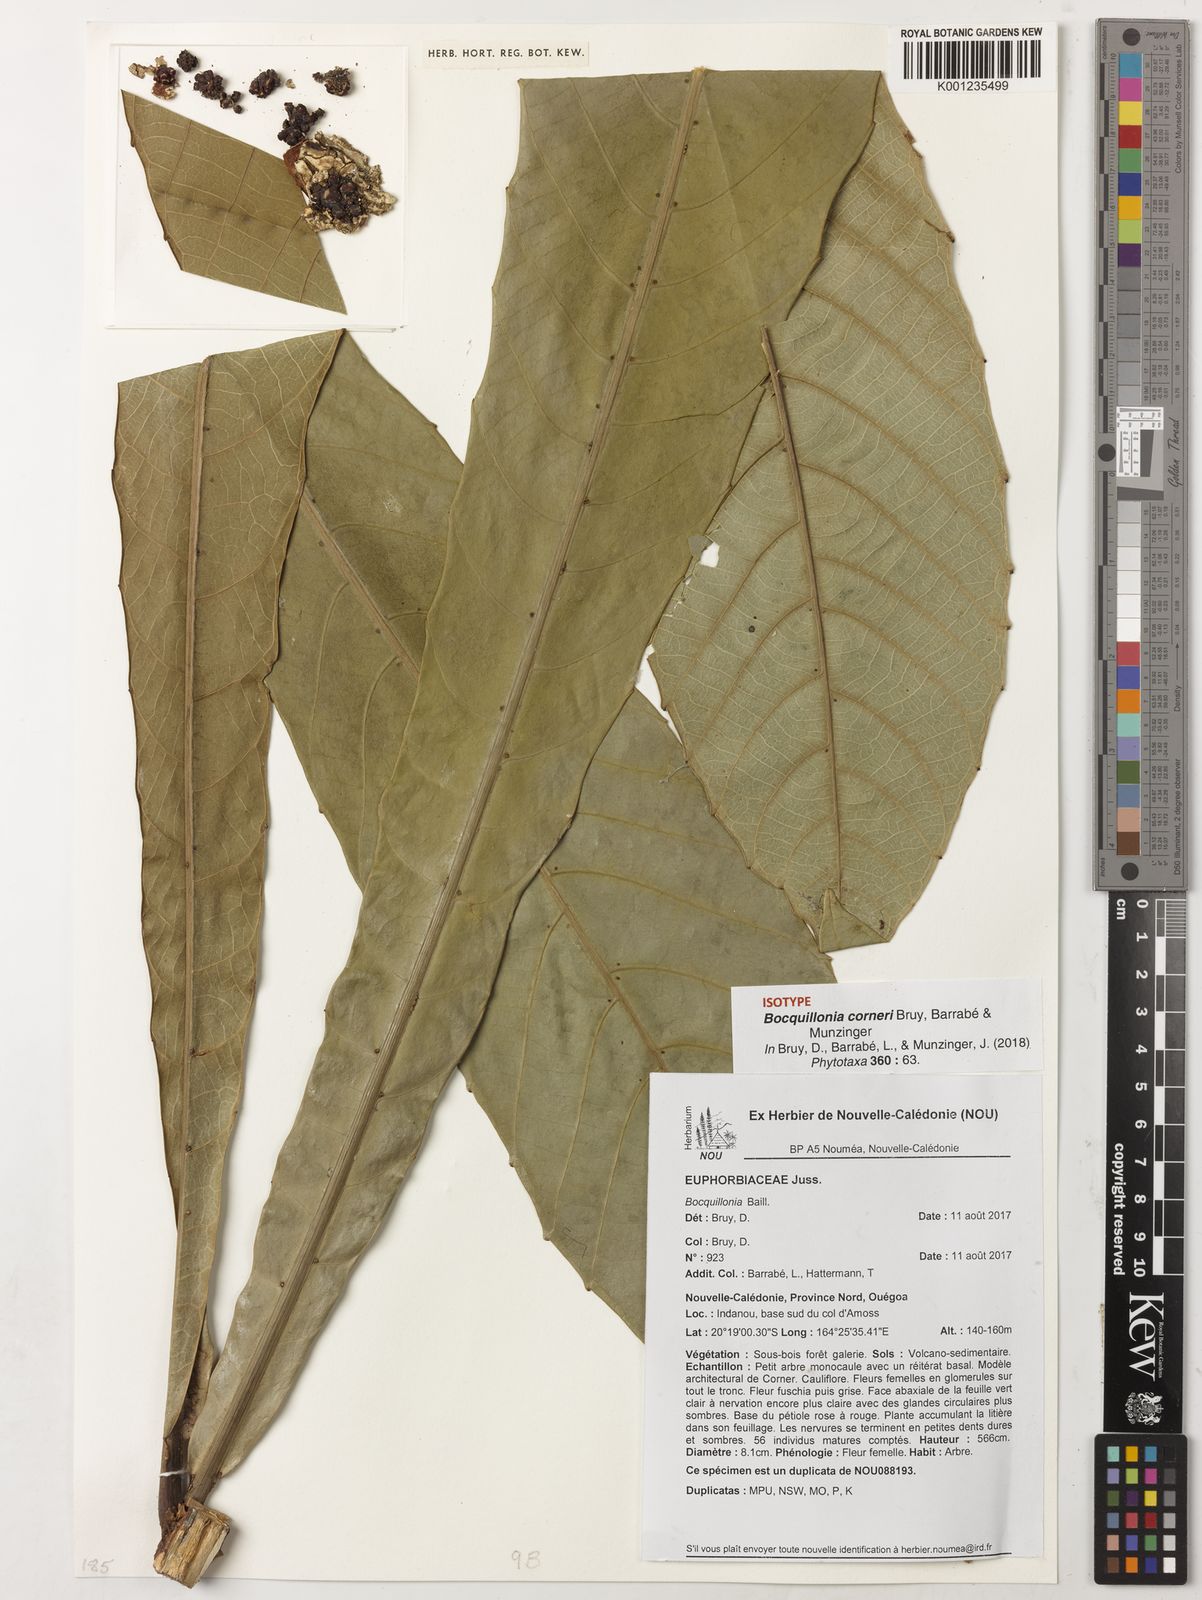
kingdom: Plantae
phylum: Tracheophyta
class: Magnoliopsida
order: Malpighiales
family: Euphorbiaceae
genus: Bocquillonia
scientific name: Bocquillonia
